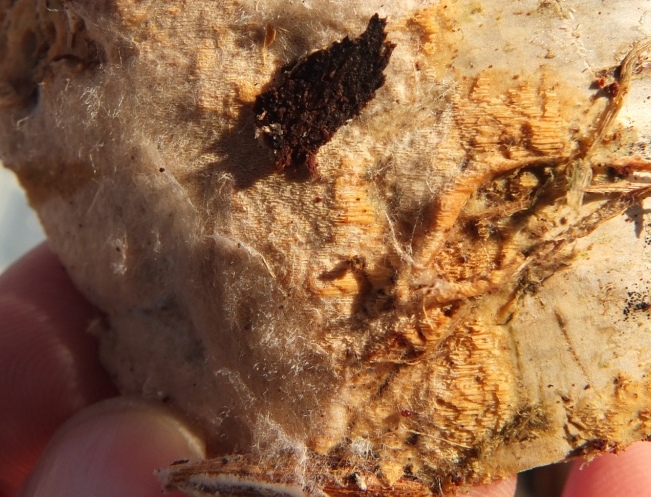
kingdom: Fungi
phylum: Basidiomycota
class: Agaricomycetes
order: Hymenochaetales
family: Schizoporaceae
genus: Xylodon
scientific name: Xylodon flaviporus
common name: gulporet tandsvamp
